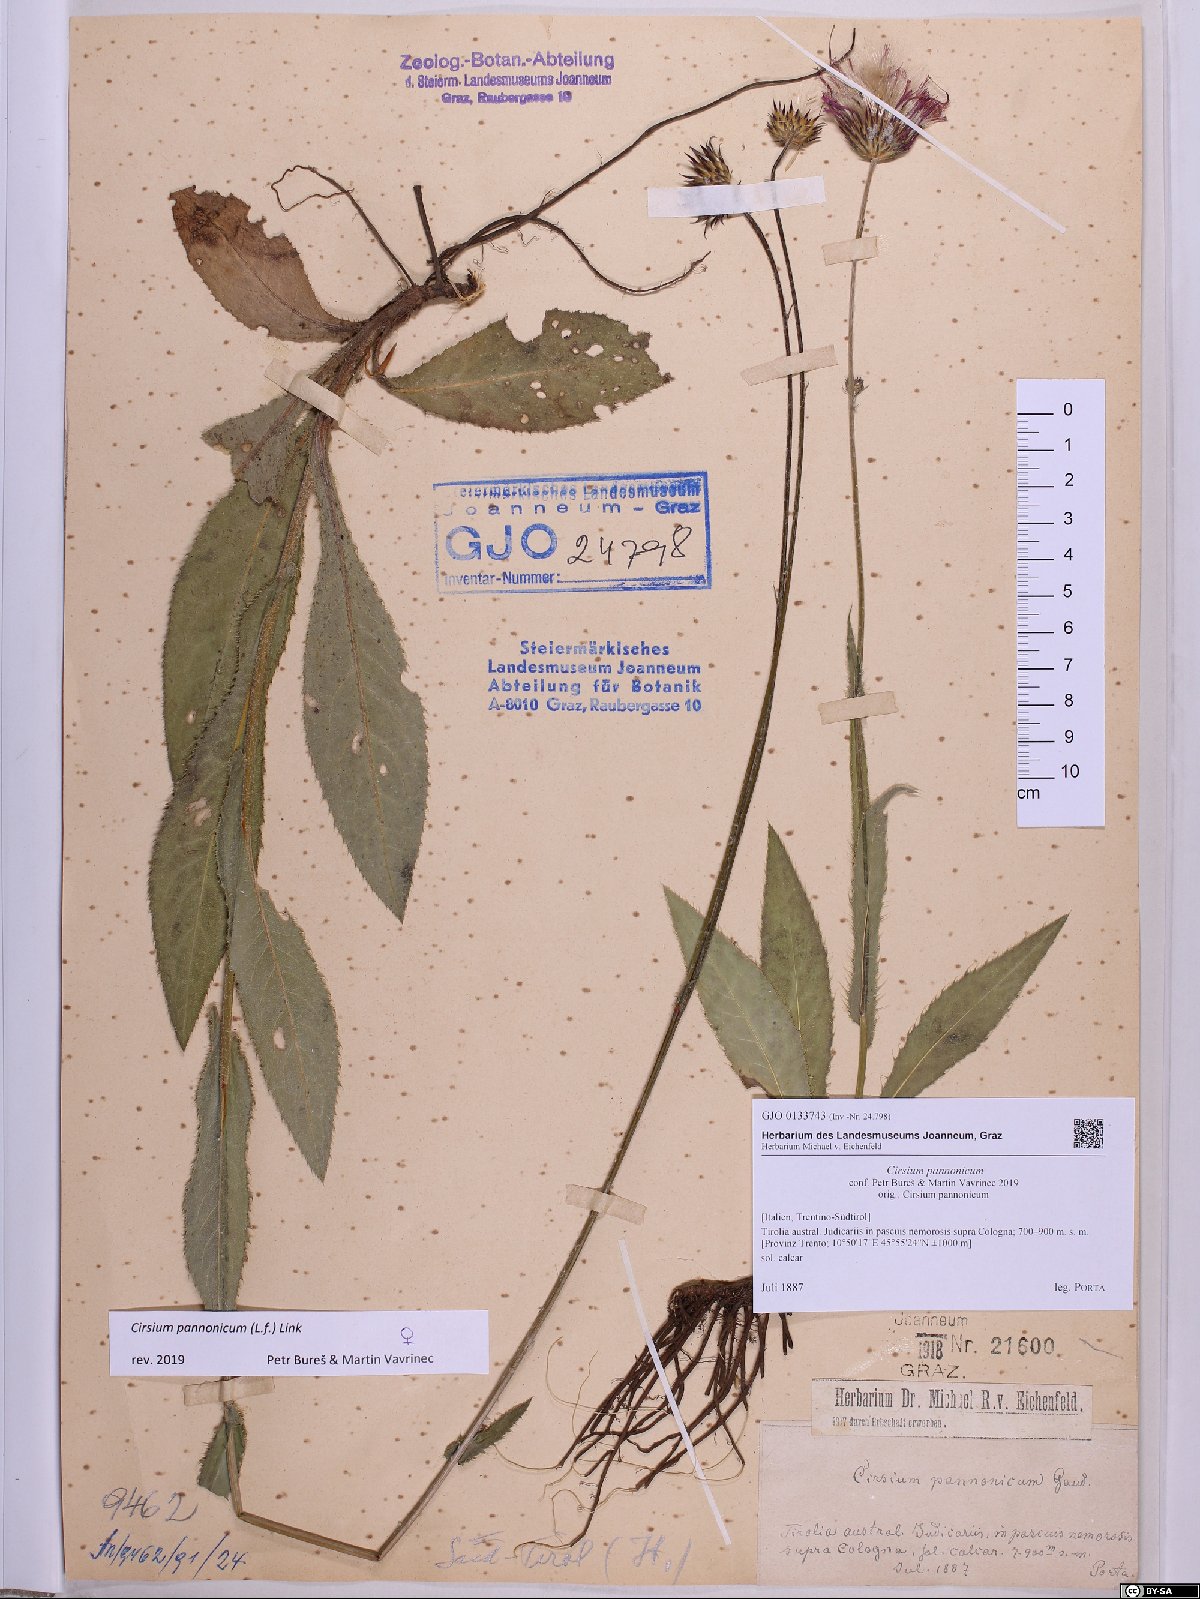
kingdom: Plantae
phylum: Tracheophyta
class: Magnoliopsida
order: Asterales
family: Asteraceae
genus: Cirsium
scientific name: Cirsium pannonicum
